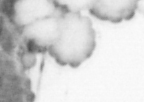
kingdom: Animalia
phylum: Annelida
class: Polychaeta
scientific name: Polychaeta
